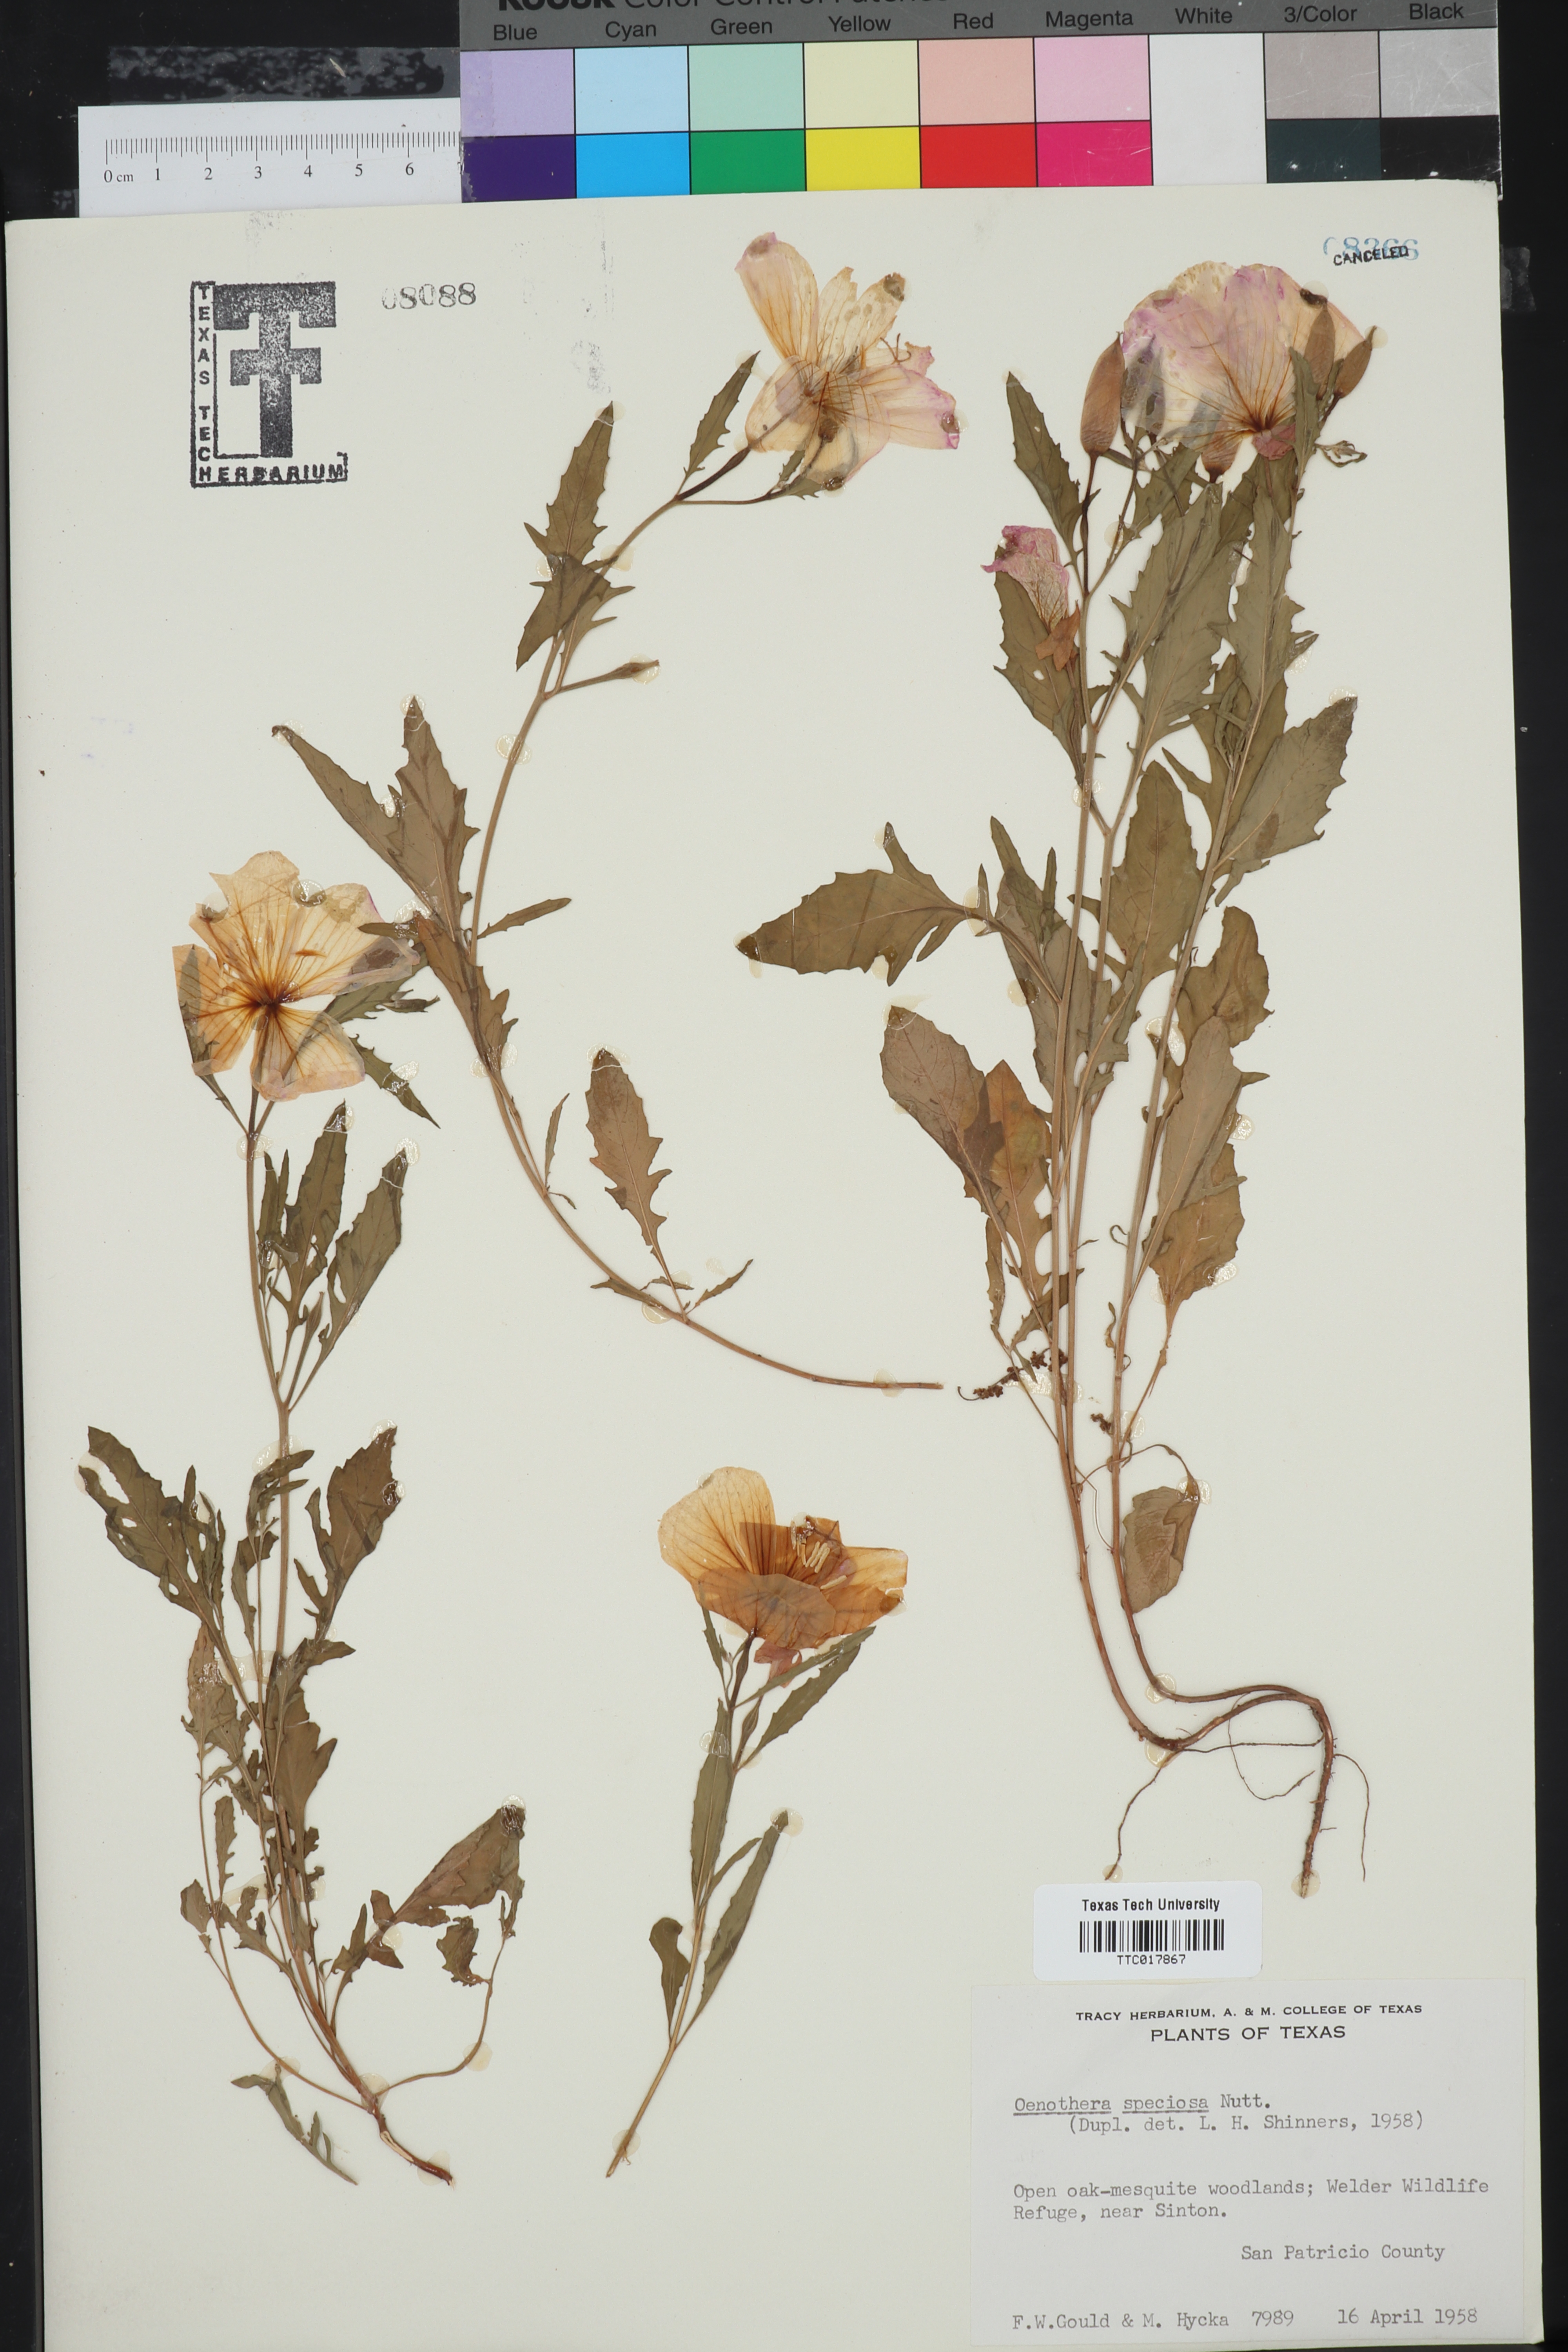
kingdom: Plantae
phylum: Tracheophyta
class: Magnoliopsida
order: Myrtales
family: Onagraceae
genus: Oenothera
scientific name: Oenothera speciosa
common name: White evening-primrose
